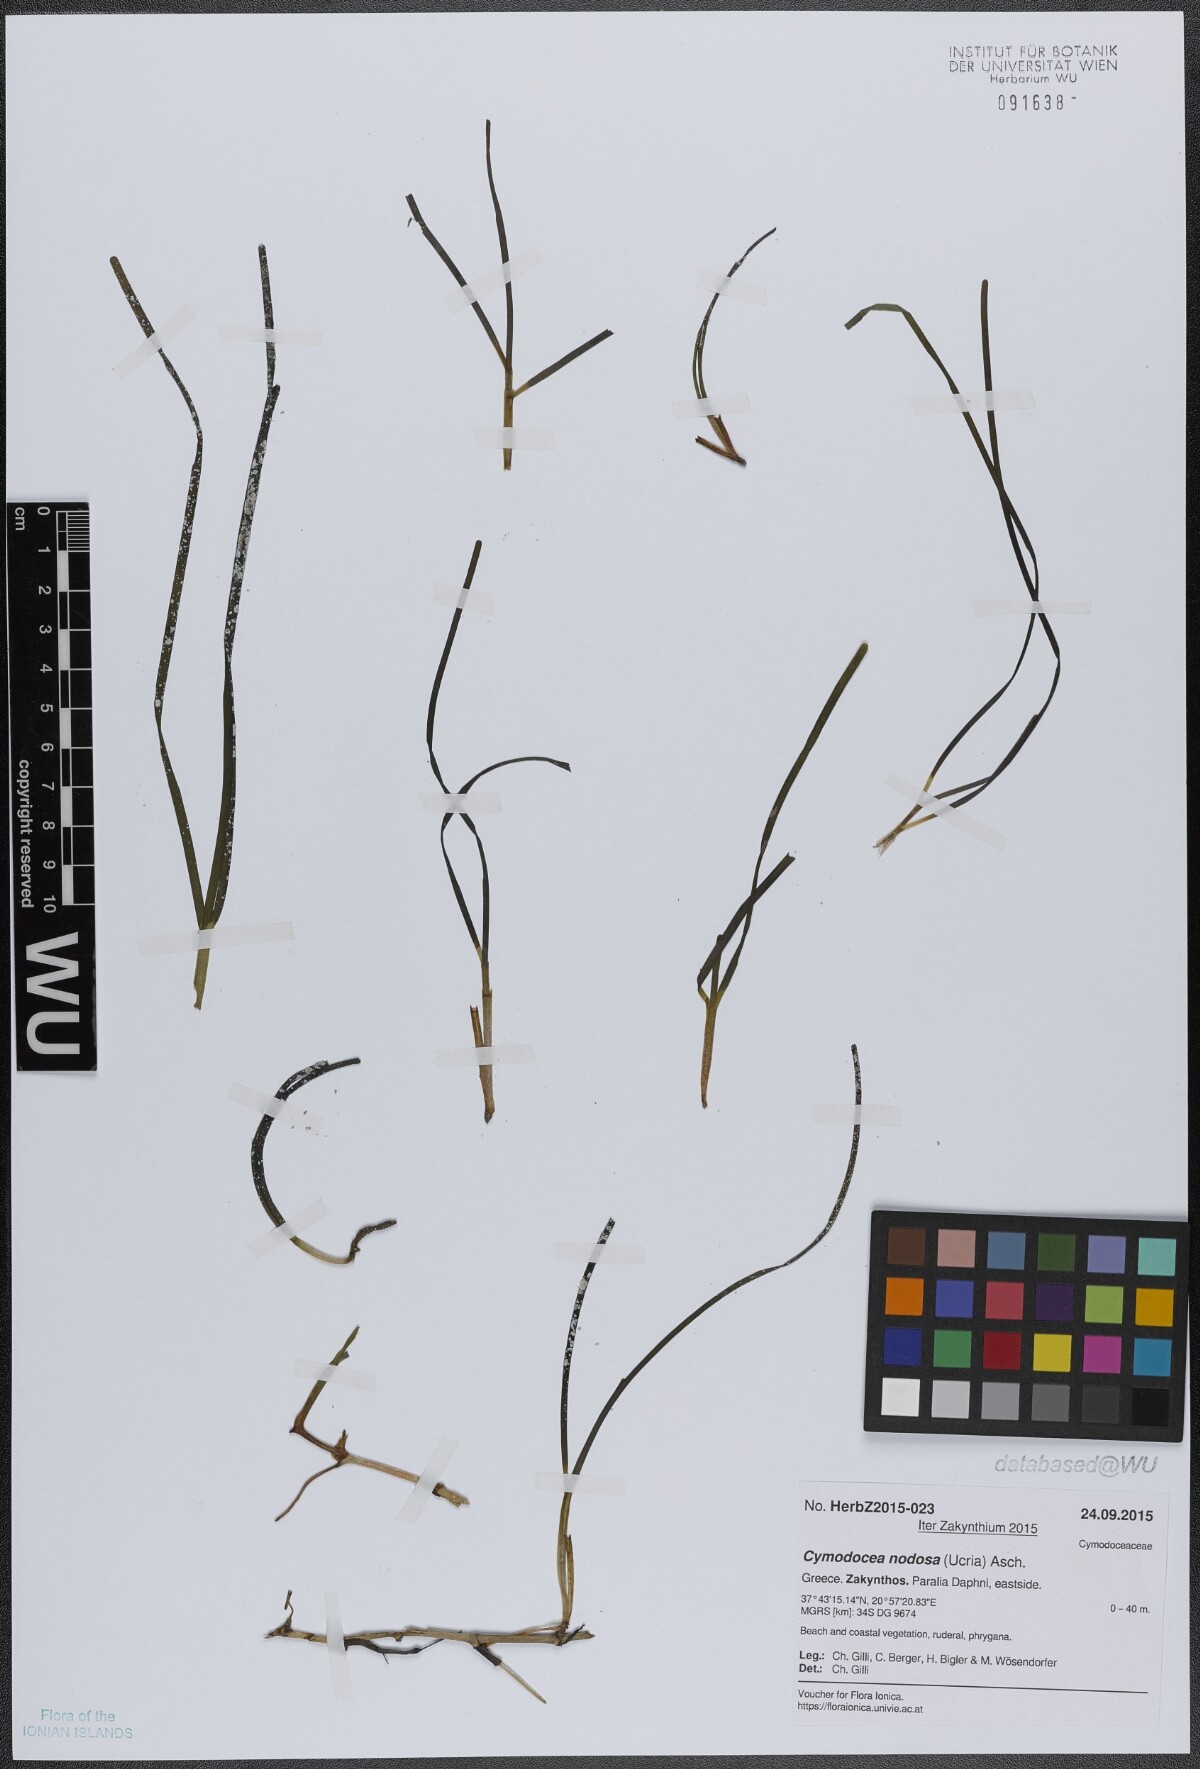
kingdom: Plantae
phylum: Tracheophyta
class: Liliopsida
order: Alismatales
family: Cymodoceaceae
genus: Cymodocea
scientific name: Cymodocea nodosa
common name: Slender seagrass
